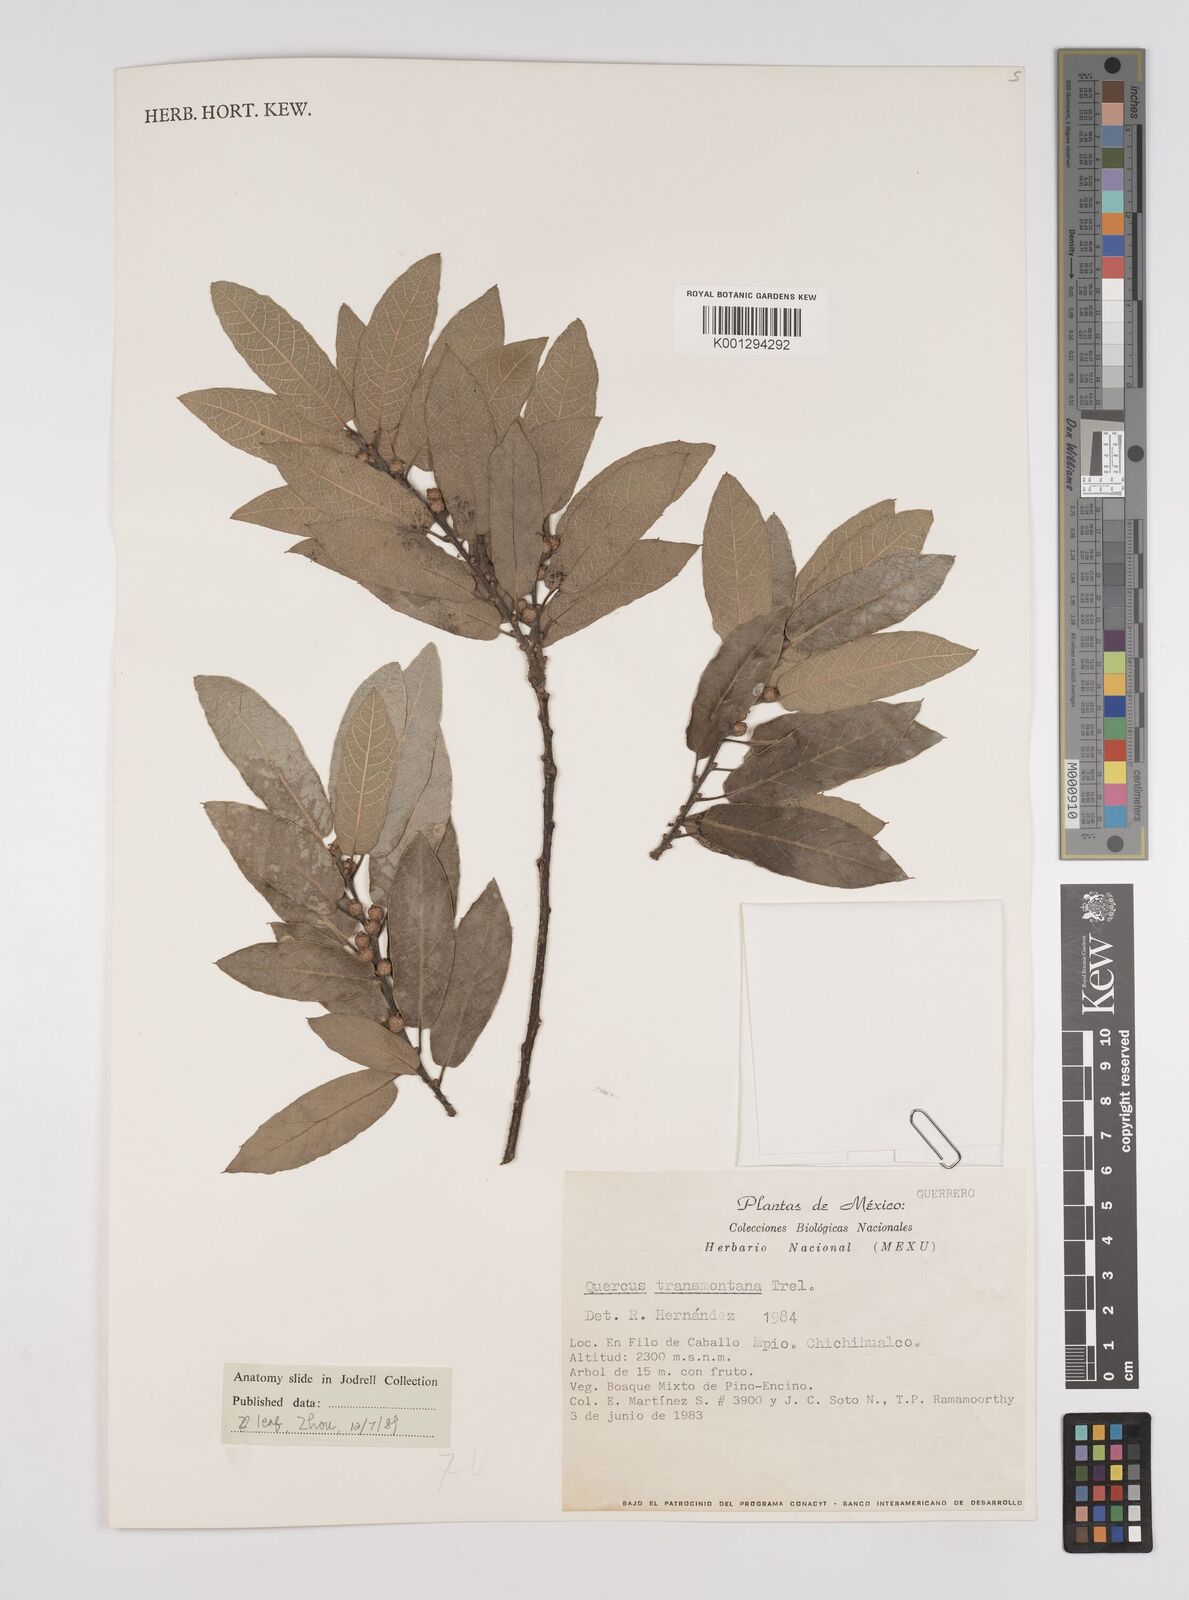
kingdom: Plantae
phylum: Tracheophyta
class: Magnoliopsida
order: Fagales
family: Fagaceae
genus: Quercus
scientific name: Quercus laeta
